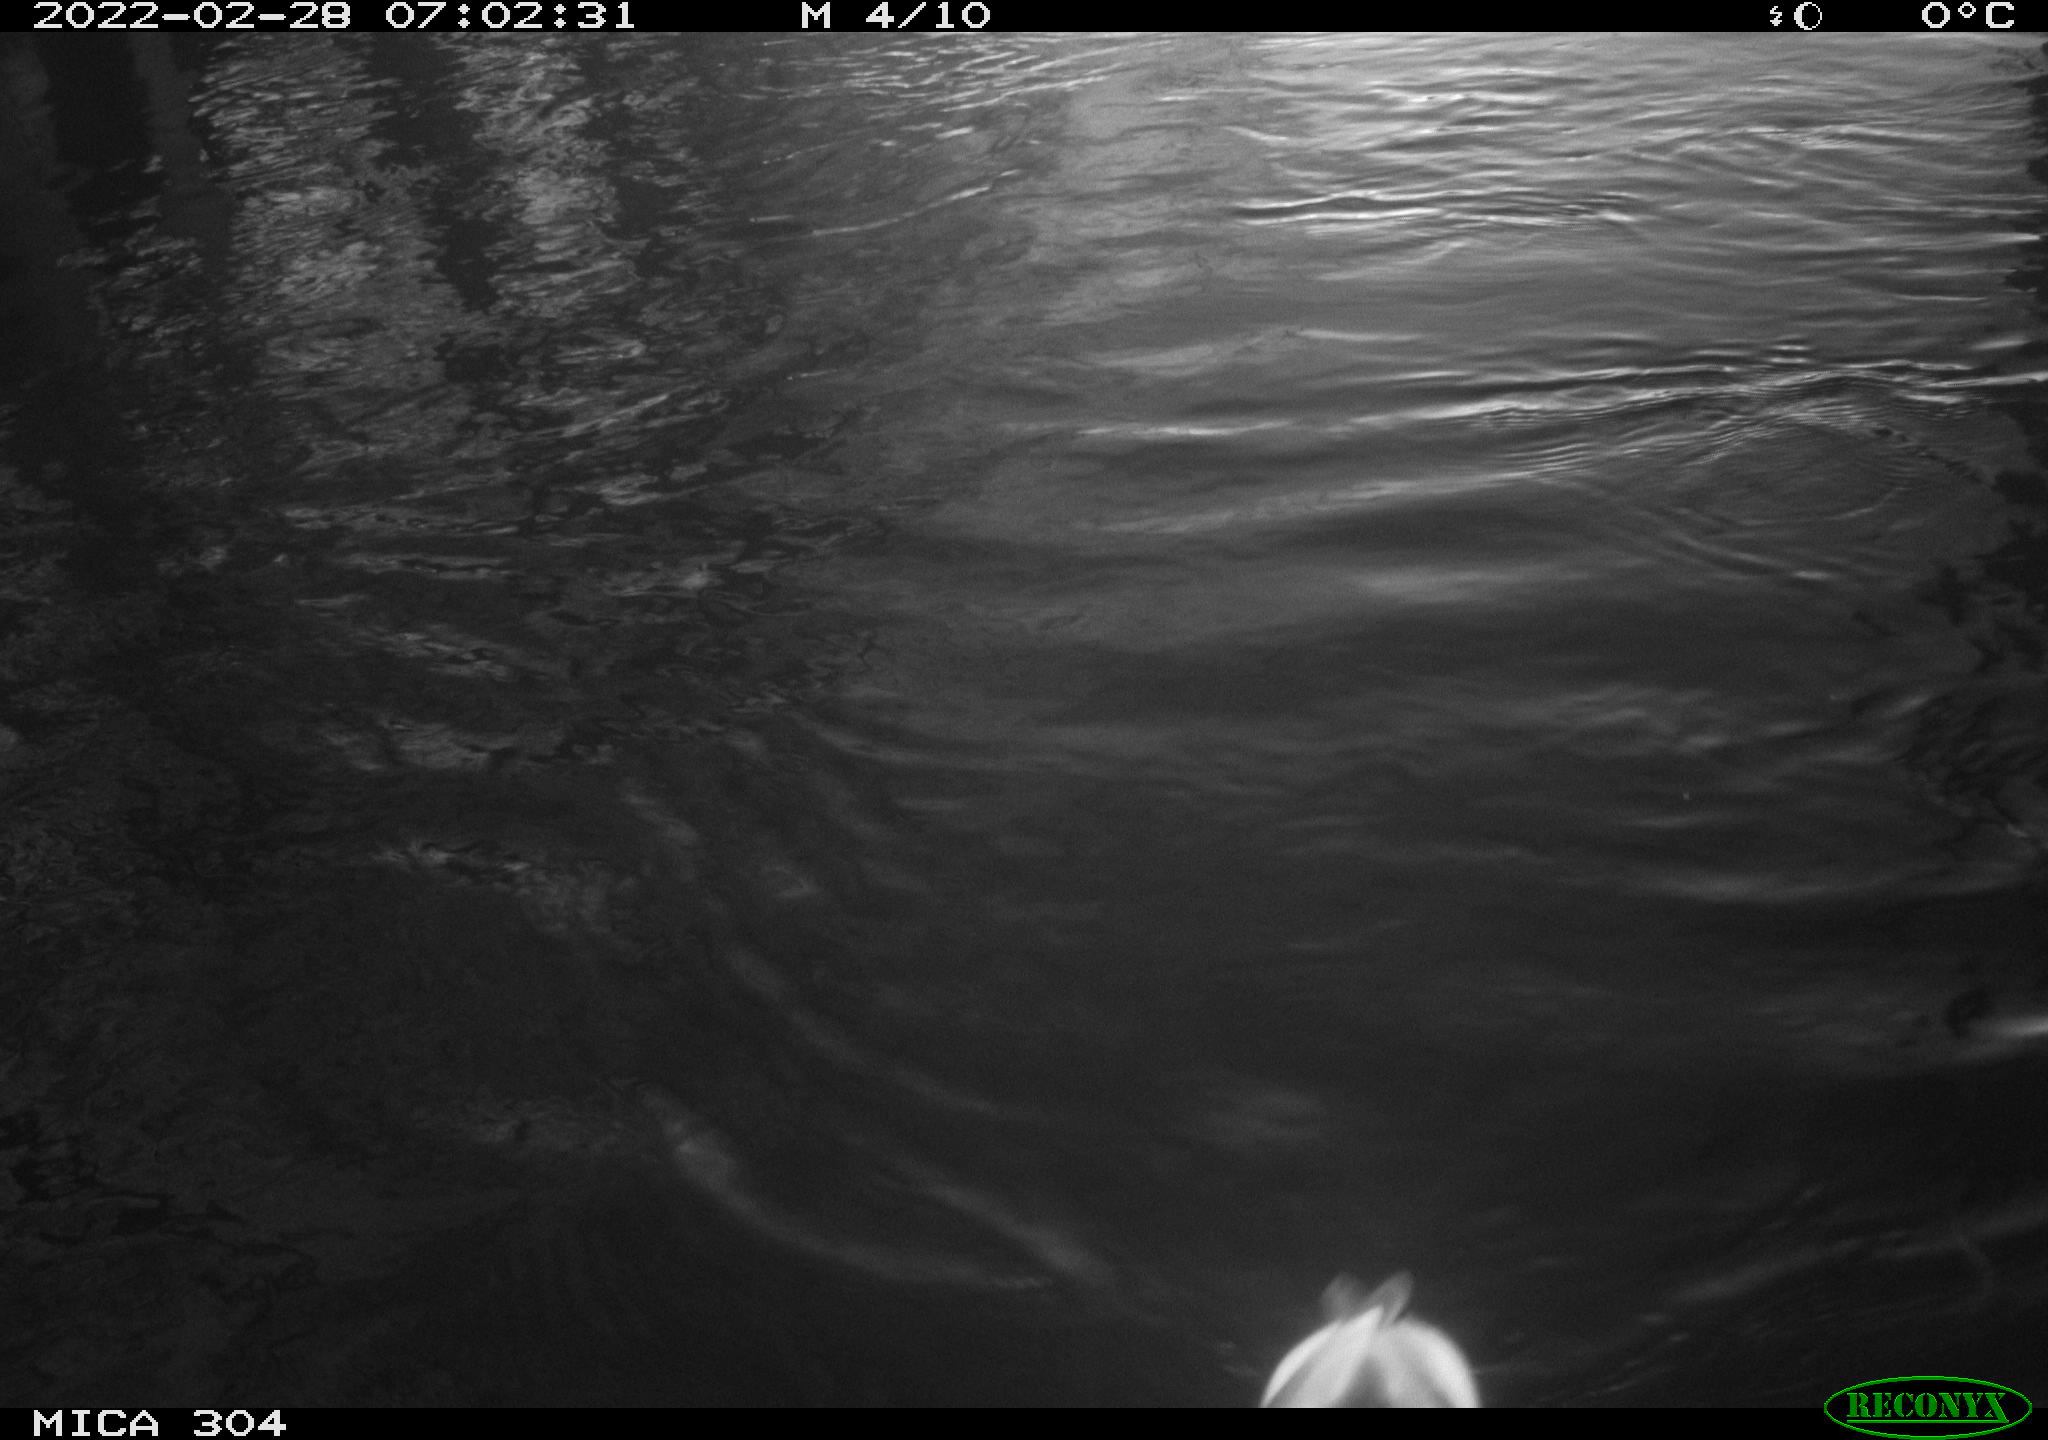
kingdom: Animalia
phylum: Chordata
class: Aves
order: Anseriformes
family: Anatidae
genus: Anas
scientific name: Anas platyrhynchos
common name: Mallard
